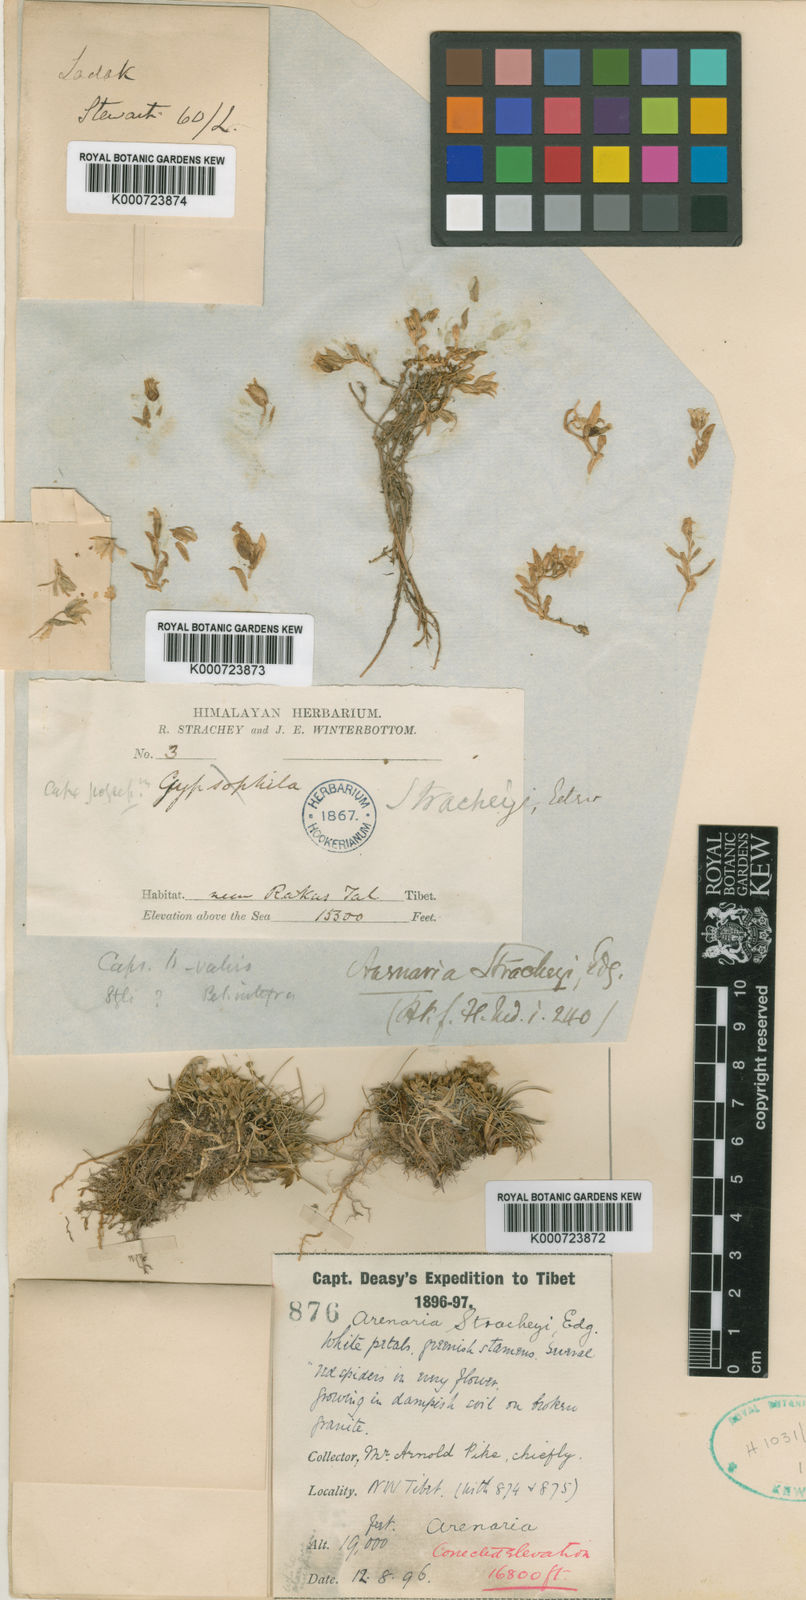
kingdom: Plantae
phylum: Tracheophyta
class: Magnoliopsida
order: Caryophyllales
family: Caryophyllaceae
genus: Shivparvatia
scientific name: Shivparvatia stracheyi
